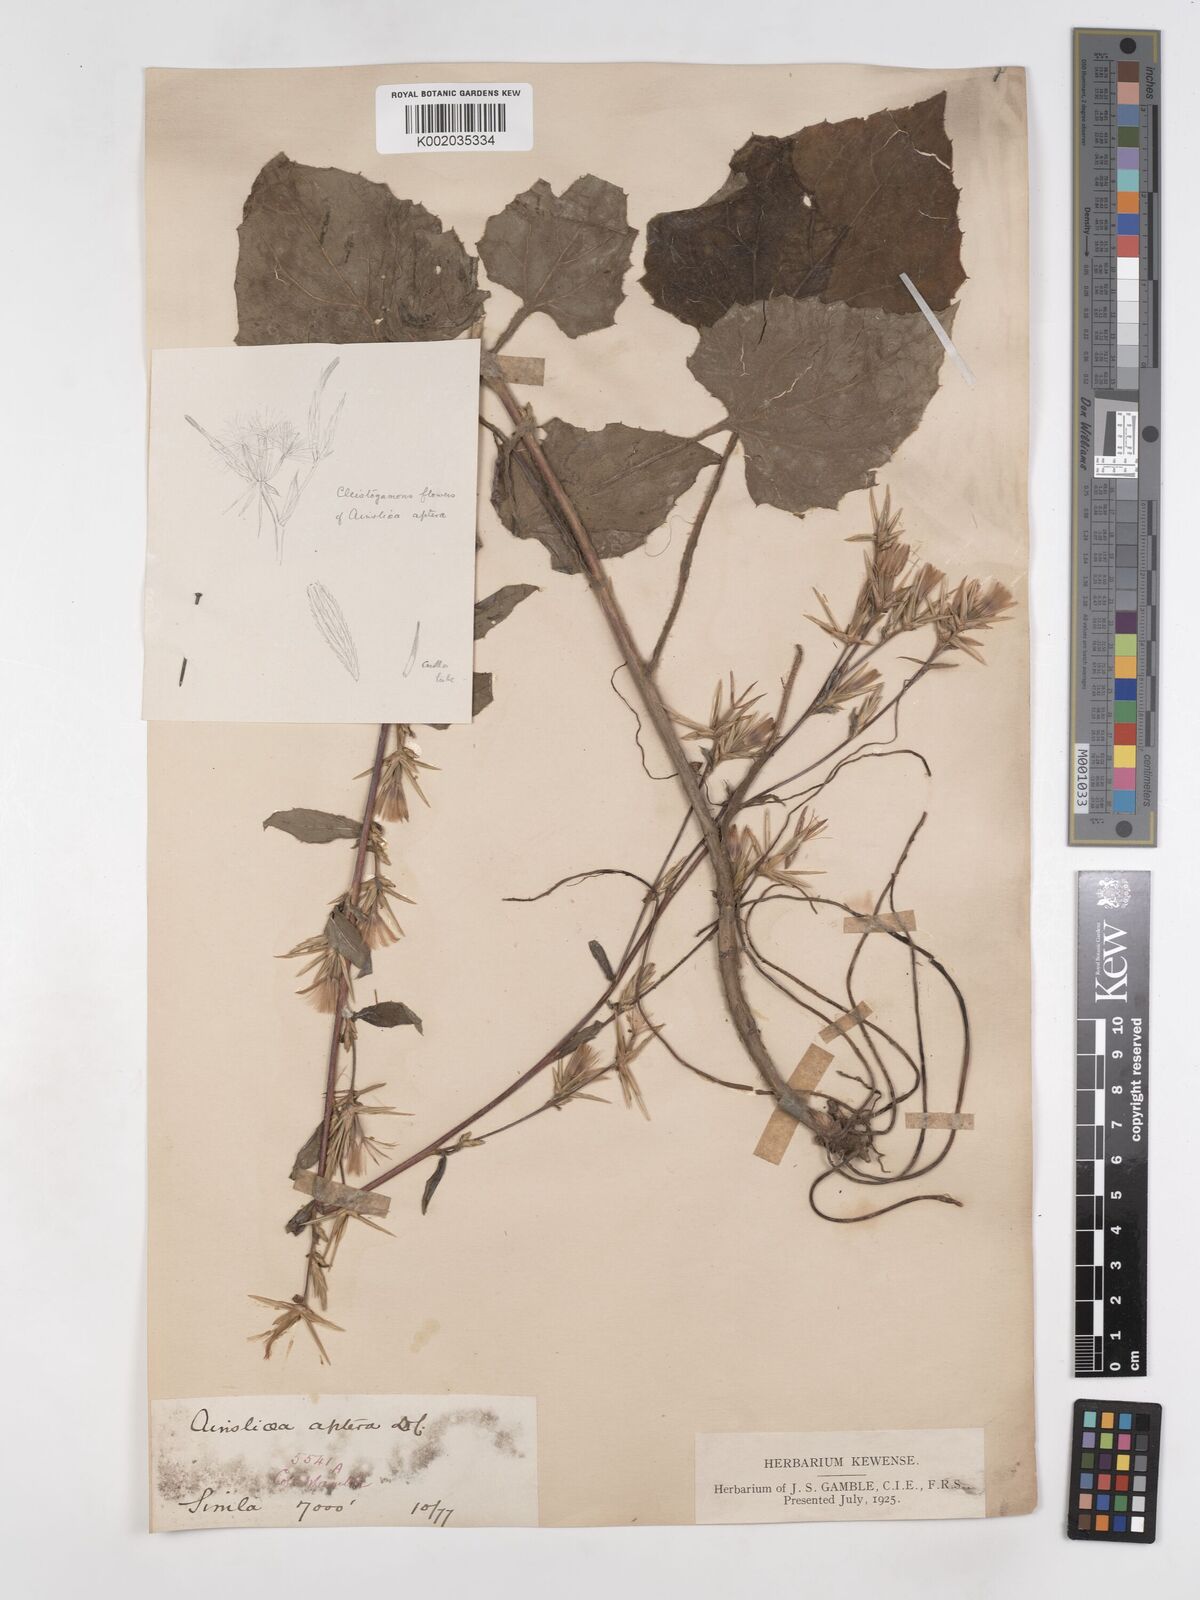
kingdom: Plantae
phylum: Tracheophyta
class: Magnoliopsida
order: Asterales
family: Asteraceae
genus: Ainsliaea
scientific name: Ainsliaea aptera
